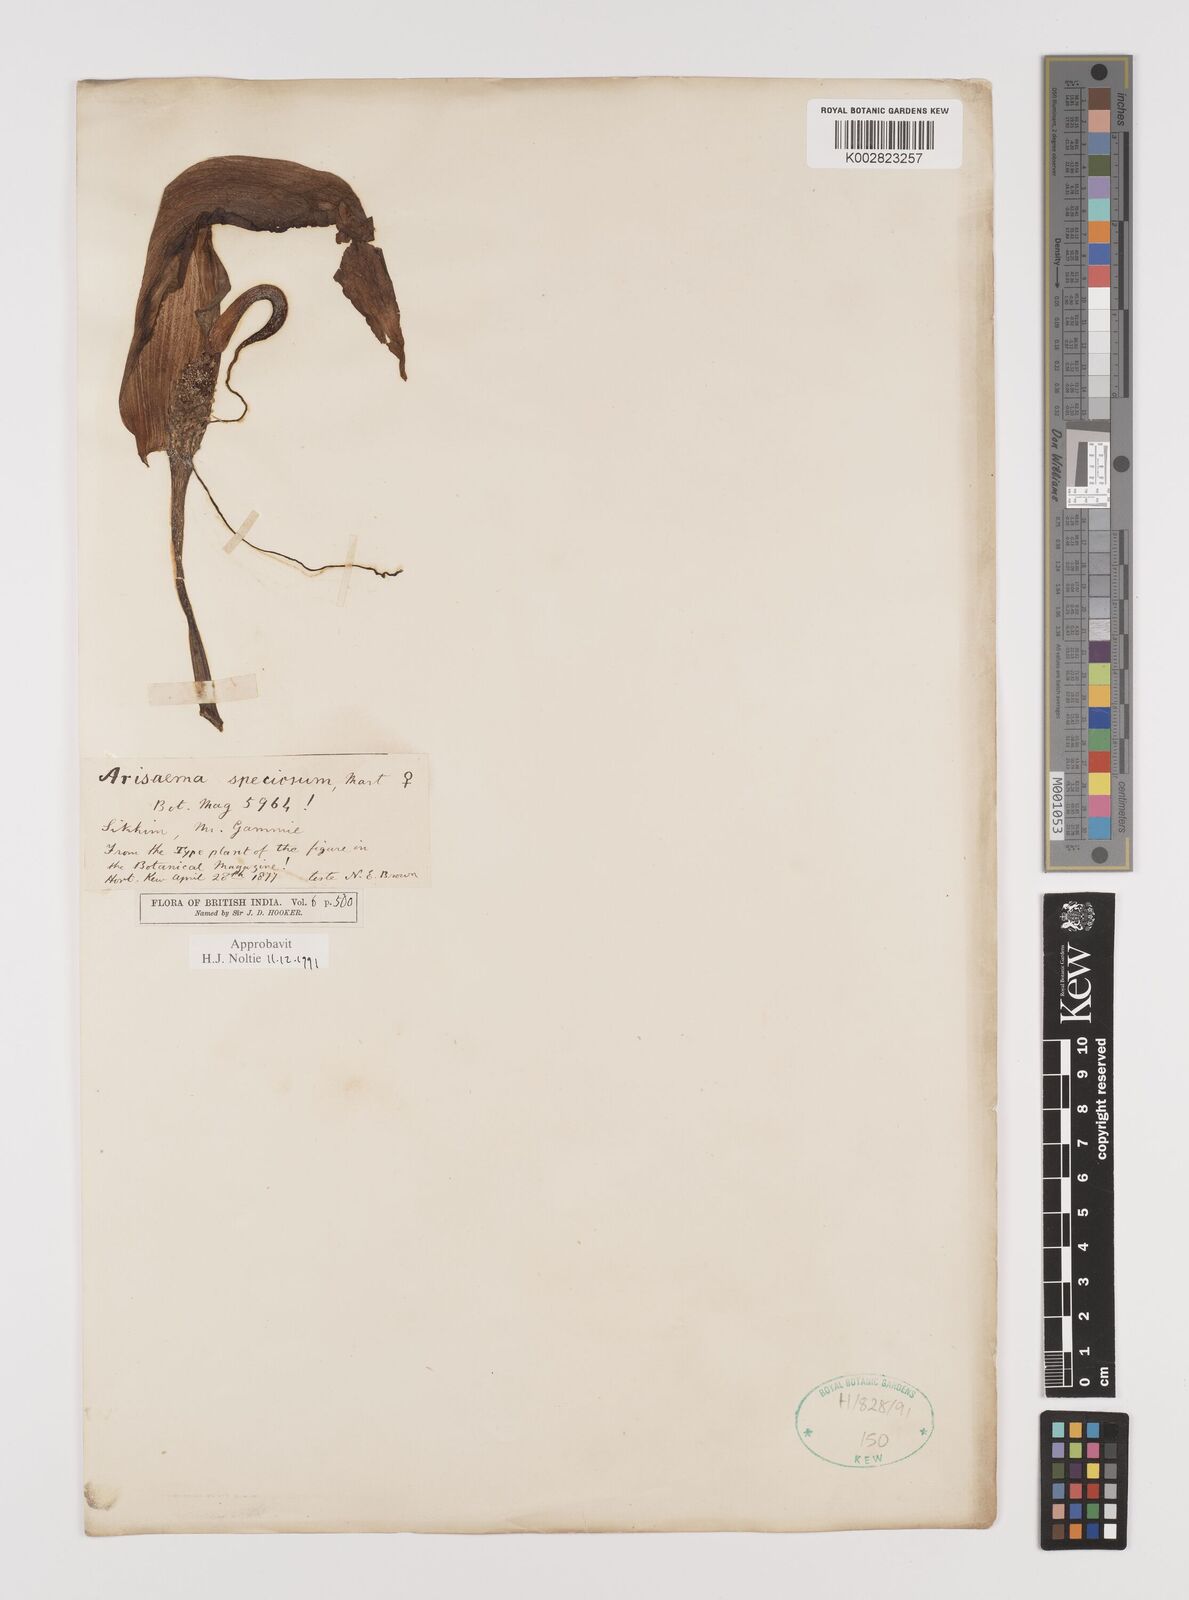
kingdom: Plantae
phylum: Tracheophyta
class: Liliopsida
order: Alismatales
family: Araceae
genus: Arisaema
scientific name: Arisaema speciosum
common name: Showy cobra-lily
